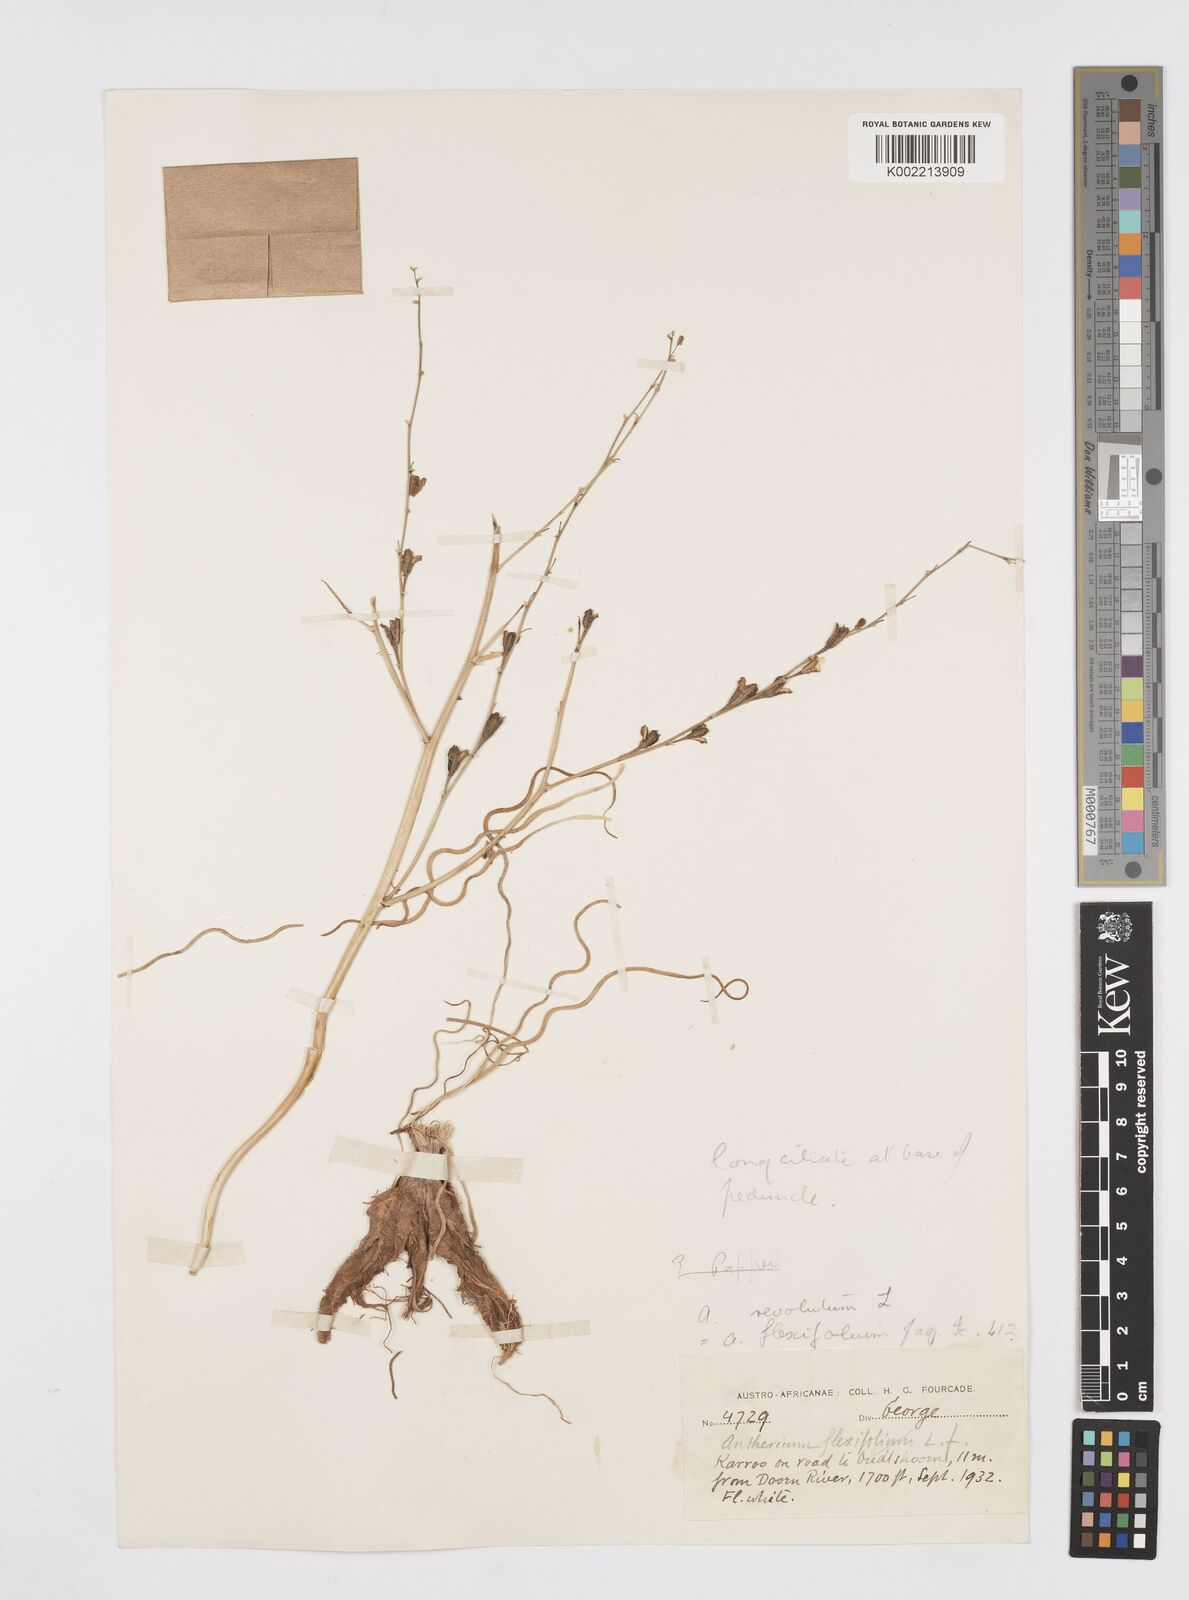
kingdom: Plantae
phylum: Tracheophyta
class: Liliopsida
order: Asparagales
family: Asphodelaceae
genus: Trachyandra
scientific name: Trachyandra flexifolia
